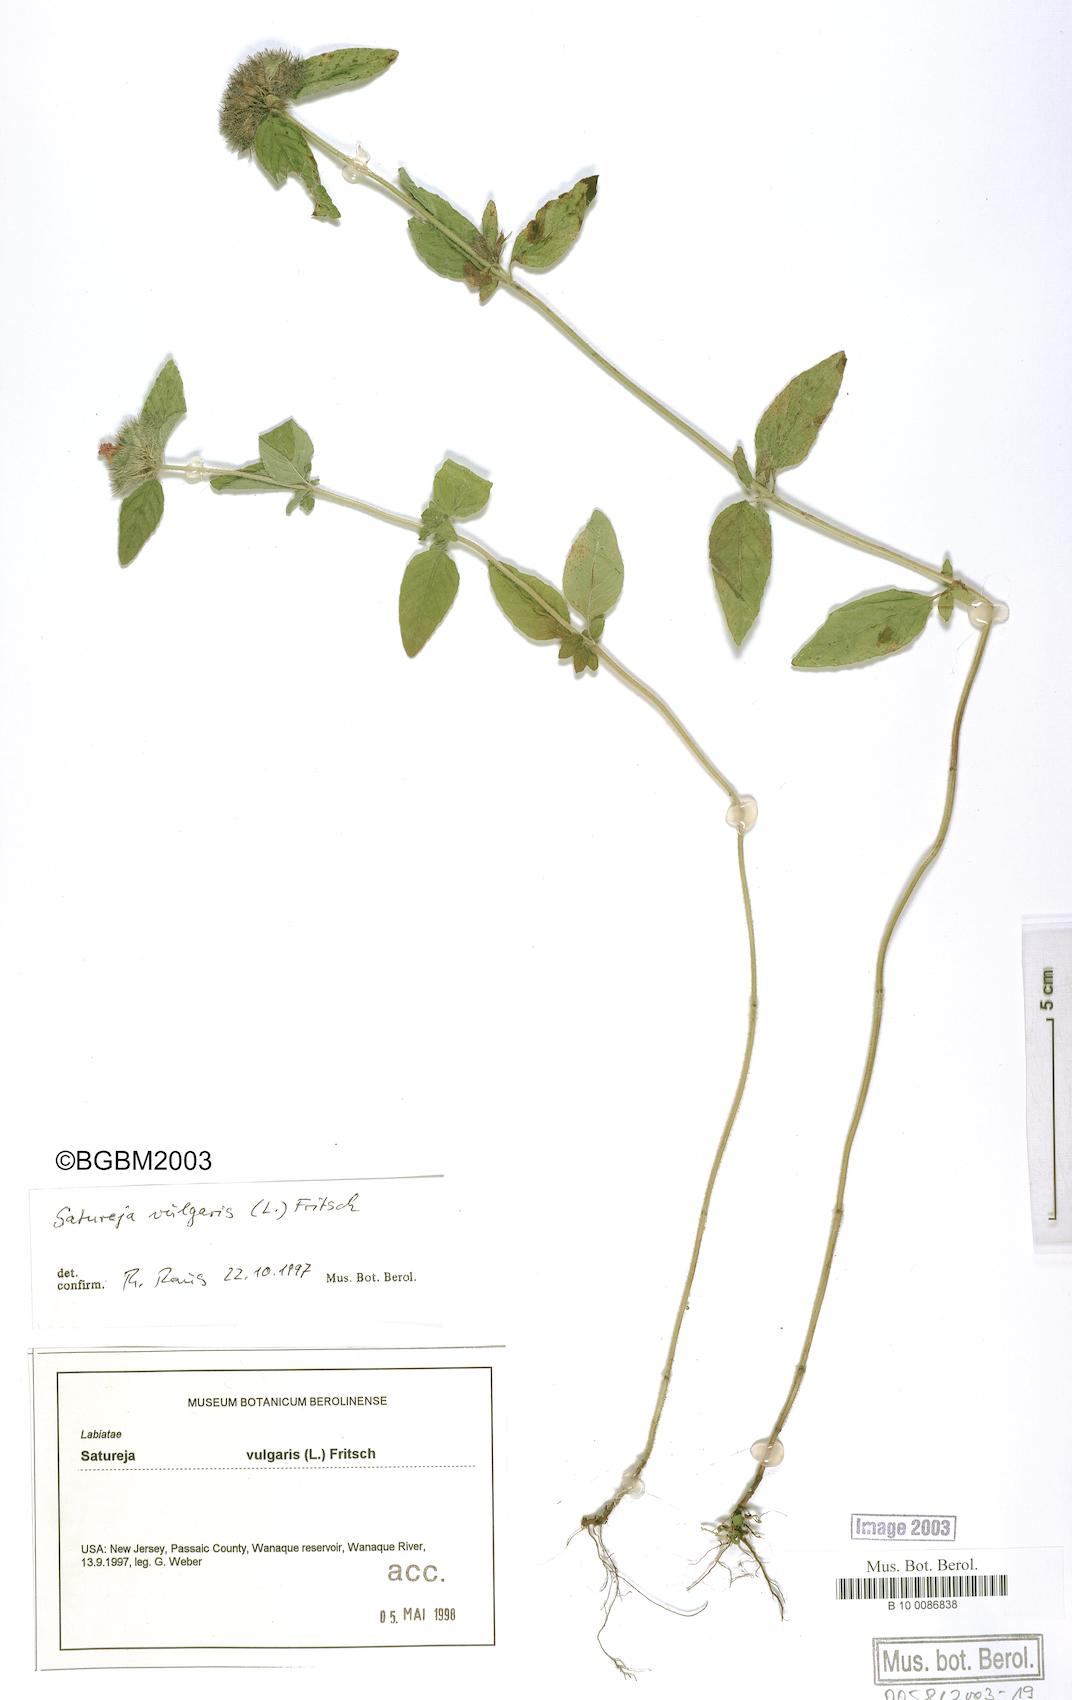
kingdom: Plantae
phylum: Tracheophyta
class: Magnoliopsida
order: Lamiales
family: Lamiaceae
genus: Clinopodium
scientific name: Clinopodium
